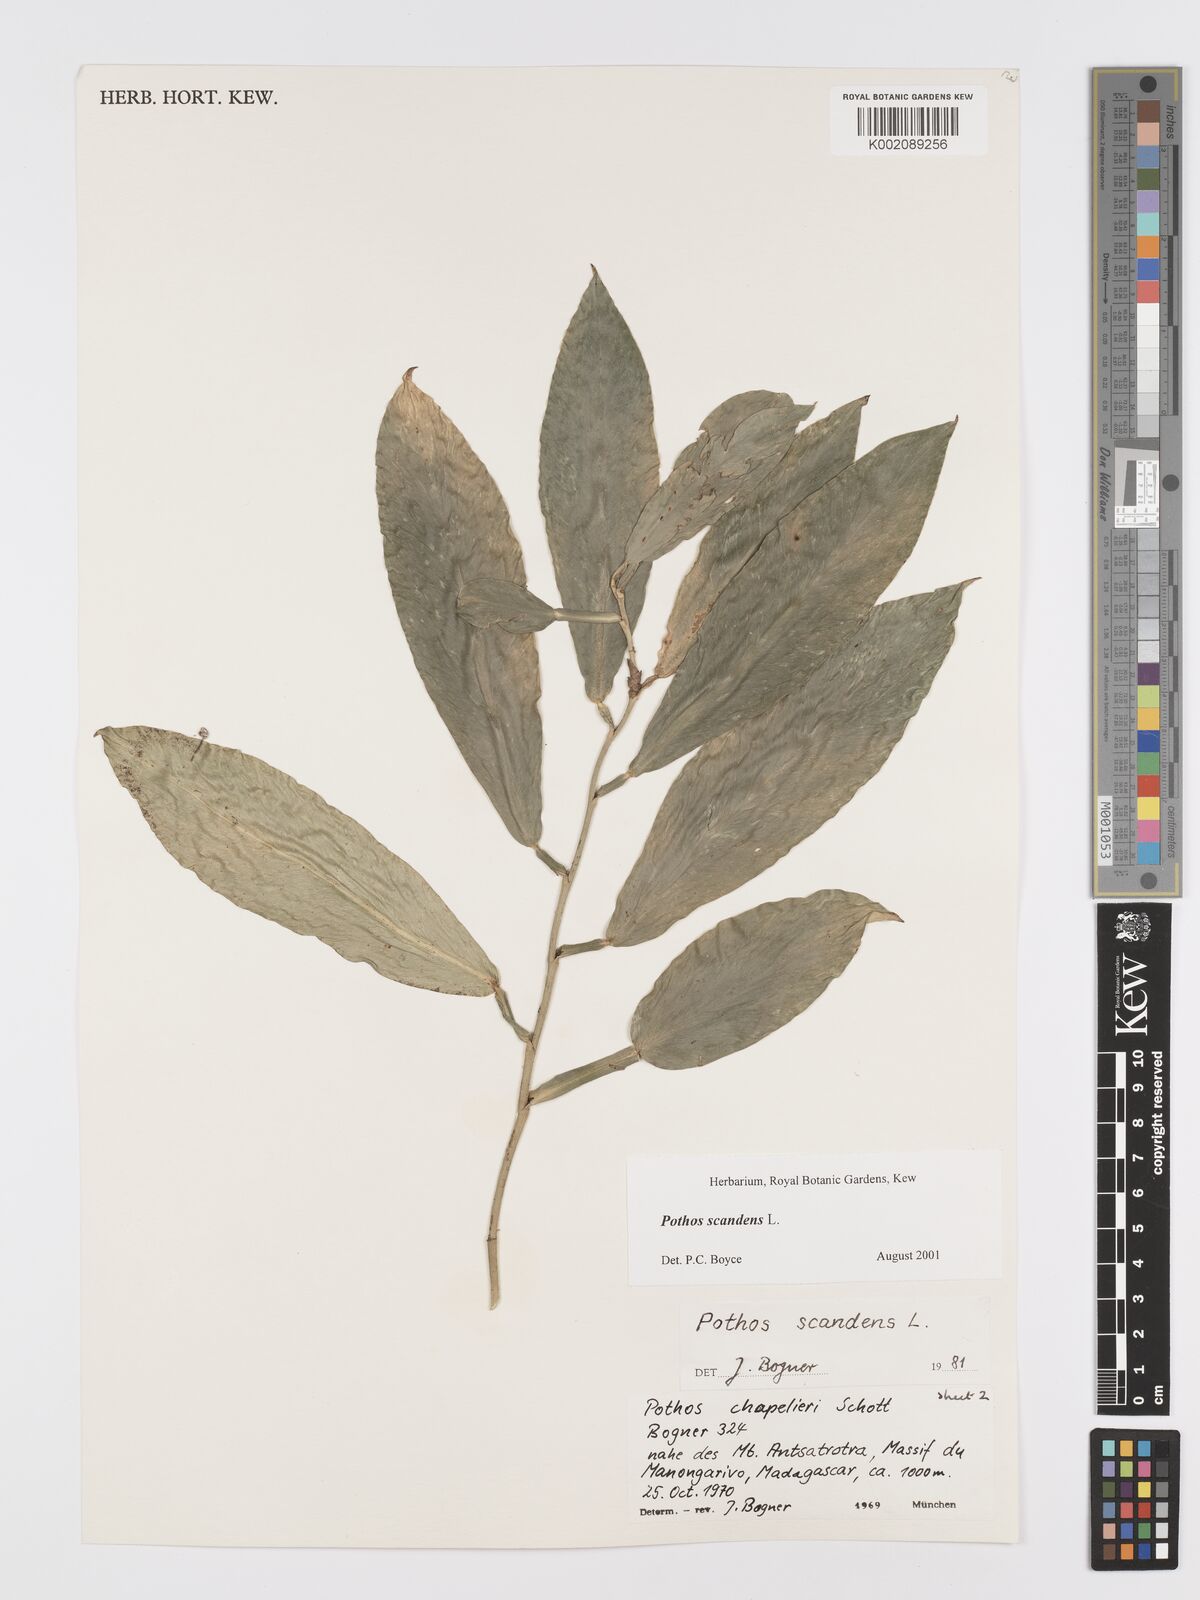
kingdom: Plantae
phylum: Tracheophyta
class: Liliopsida
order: Alismatales
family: Araceae
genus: Pothos
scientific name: Pothos scandens
